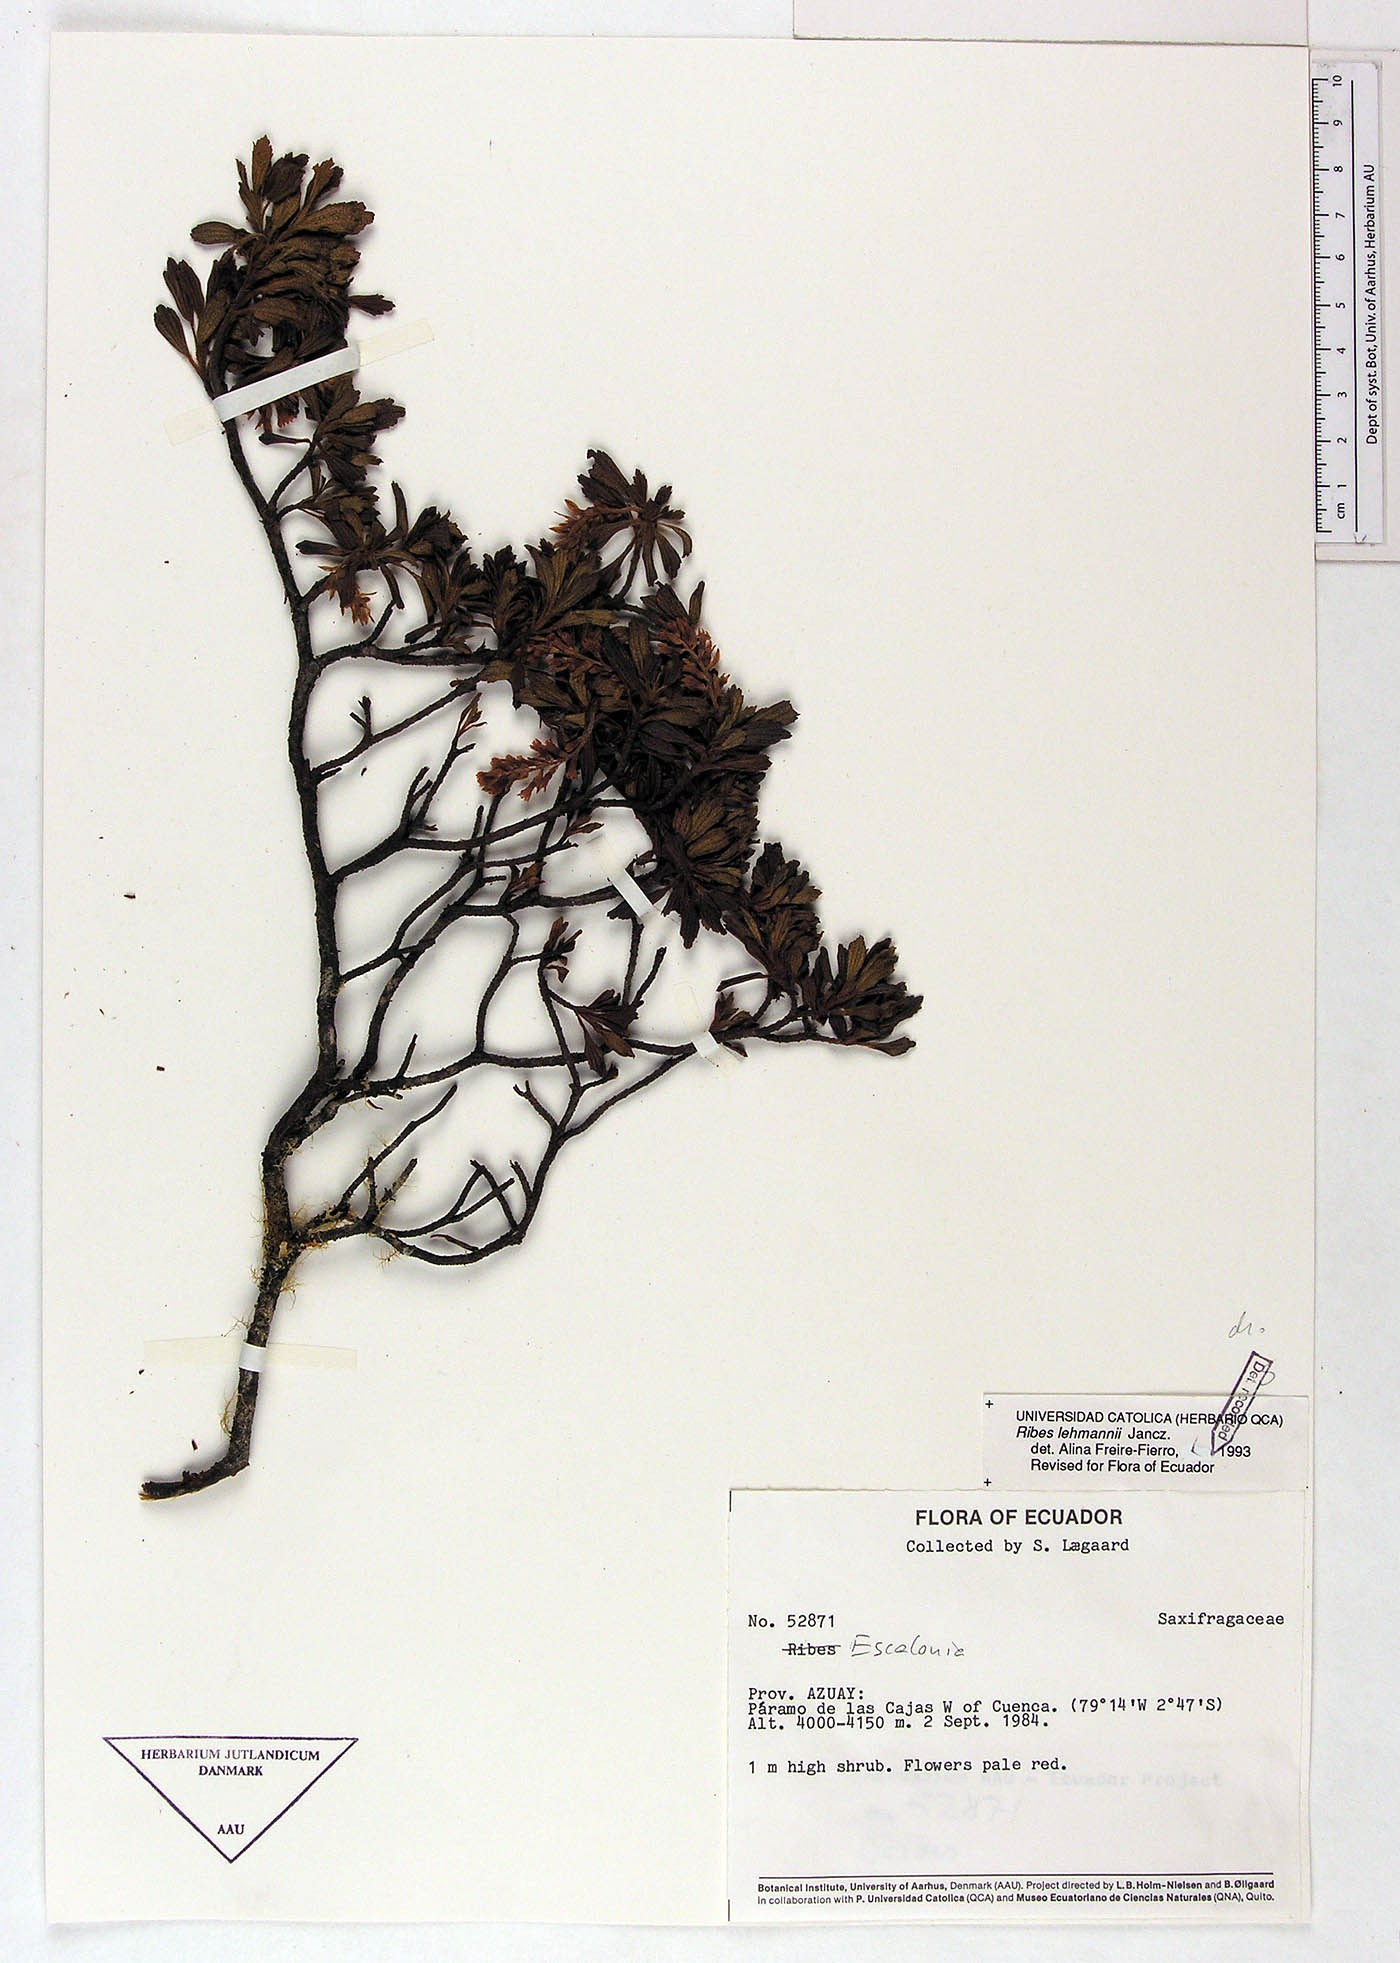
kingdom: Plantae
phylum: Tracheophyta
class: Magnoliopsida
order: Saxifragales
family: Grossulariaceae
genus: Ribes
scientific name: Ribes lehmannii
